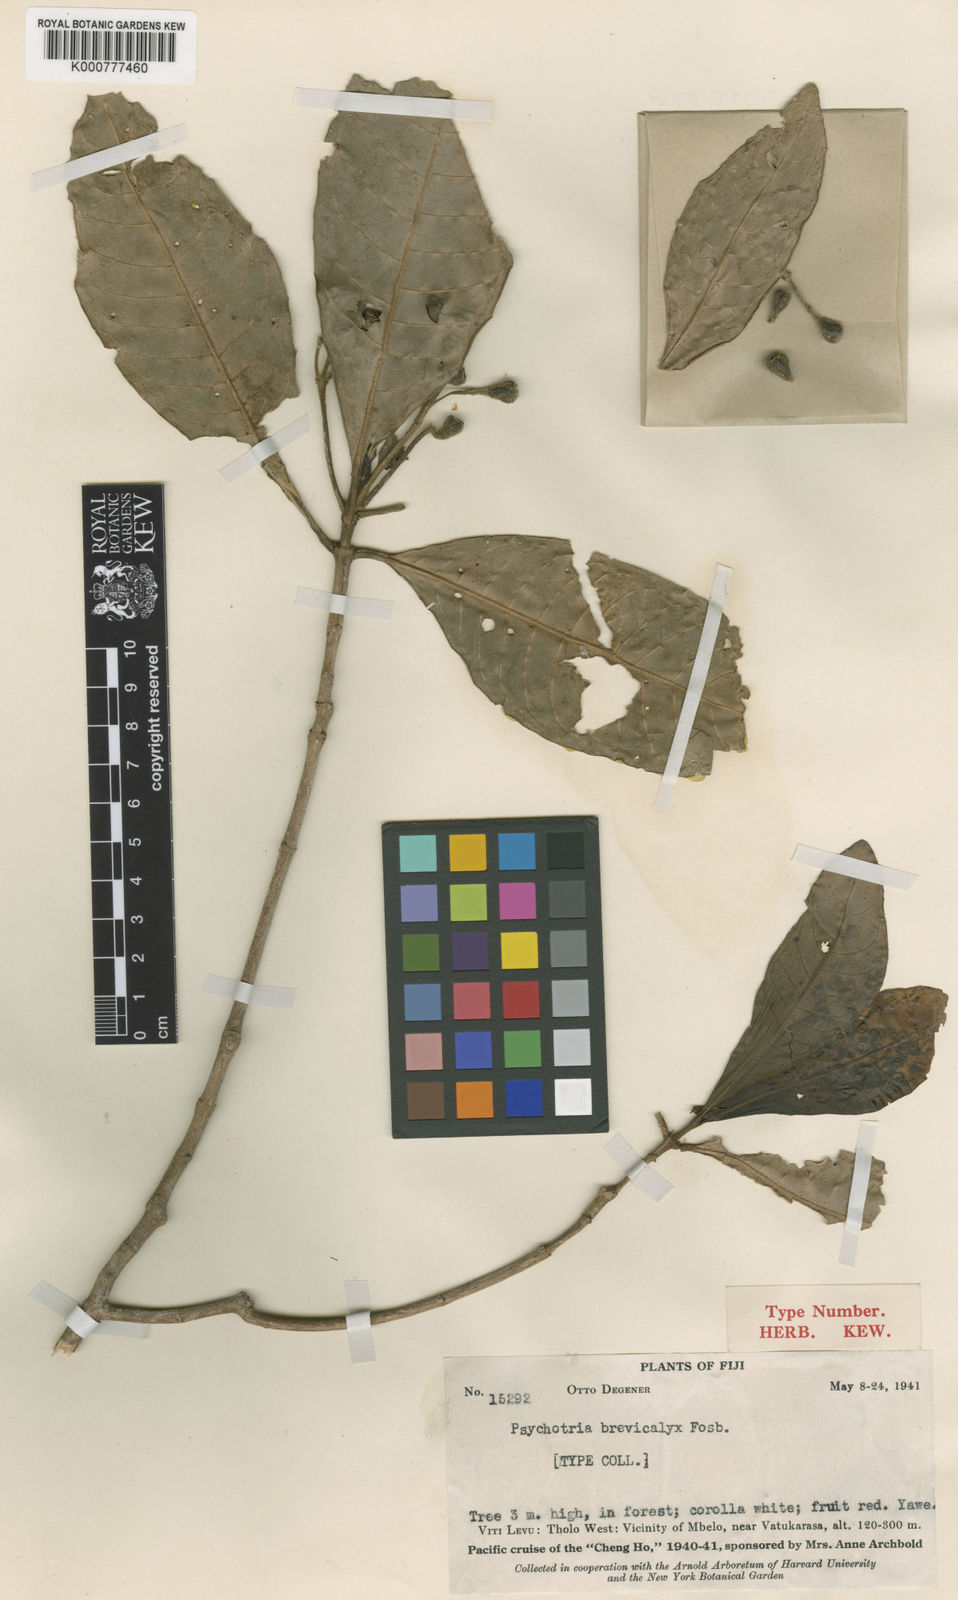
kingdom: Plantae
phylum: Tracheophyta
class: Magnoliopsida
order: Gentianales
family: Rubiaceae
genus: Psychotria
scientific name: Psychotria brevicalyx
